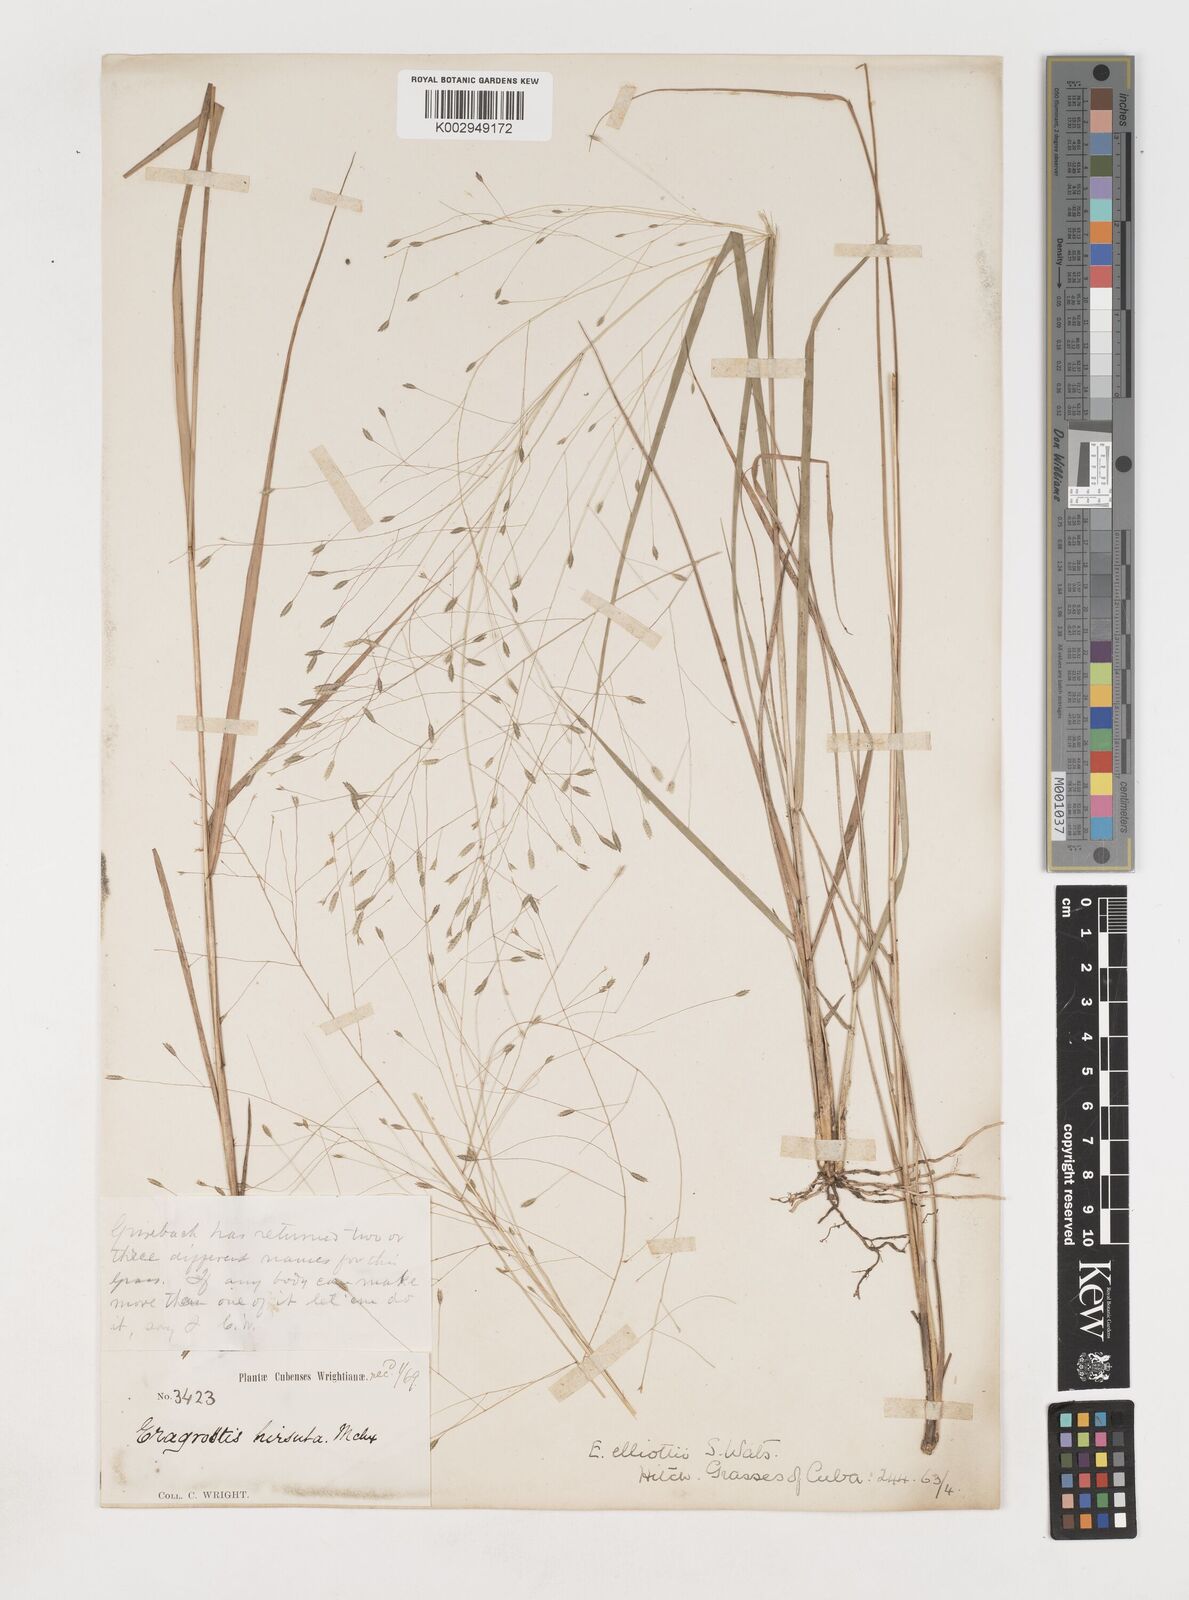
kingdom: Plantae
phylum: Tracheophyta
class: Liliopsida
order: Poales
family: Poaceae
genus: Eragrostis
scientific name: Eragrostis elliottii
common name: Elliott's love grass
